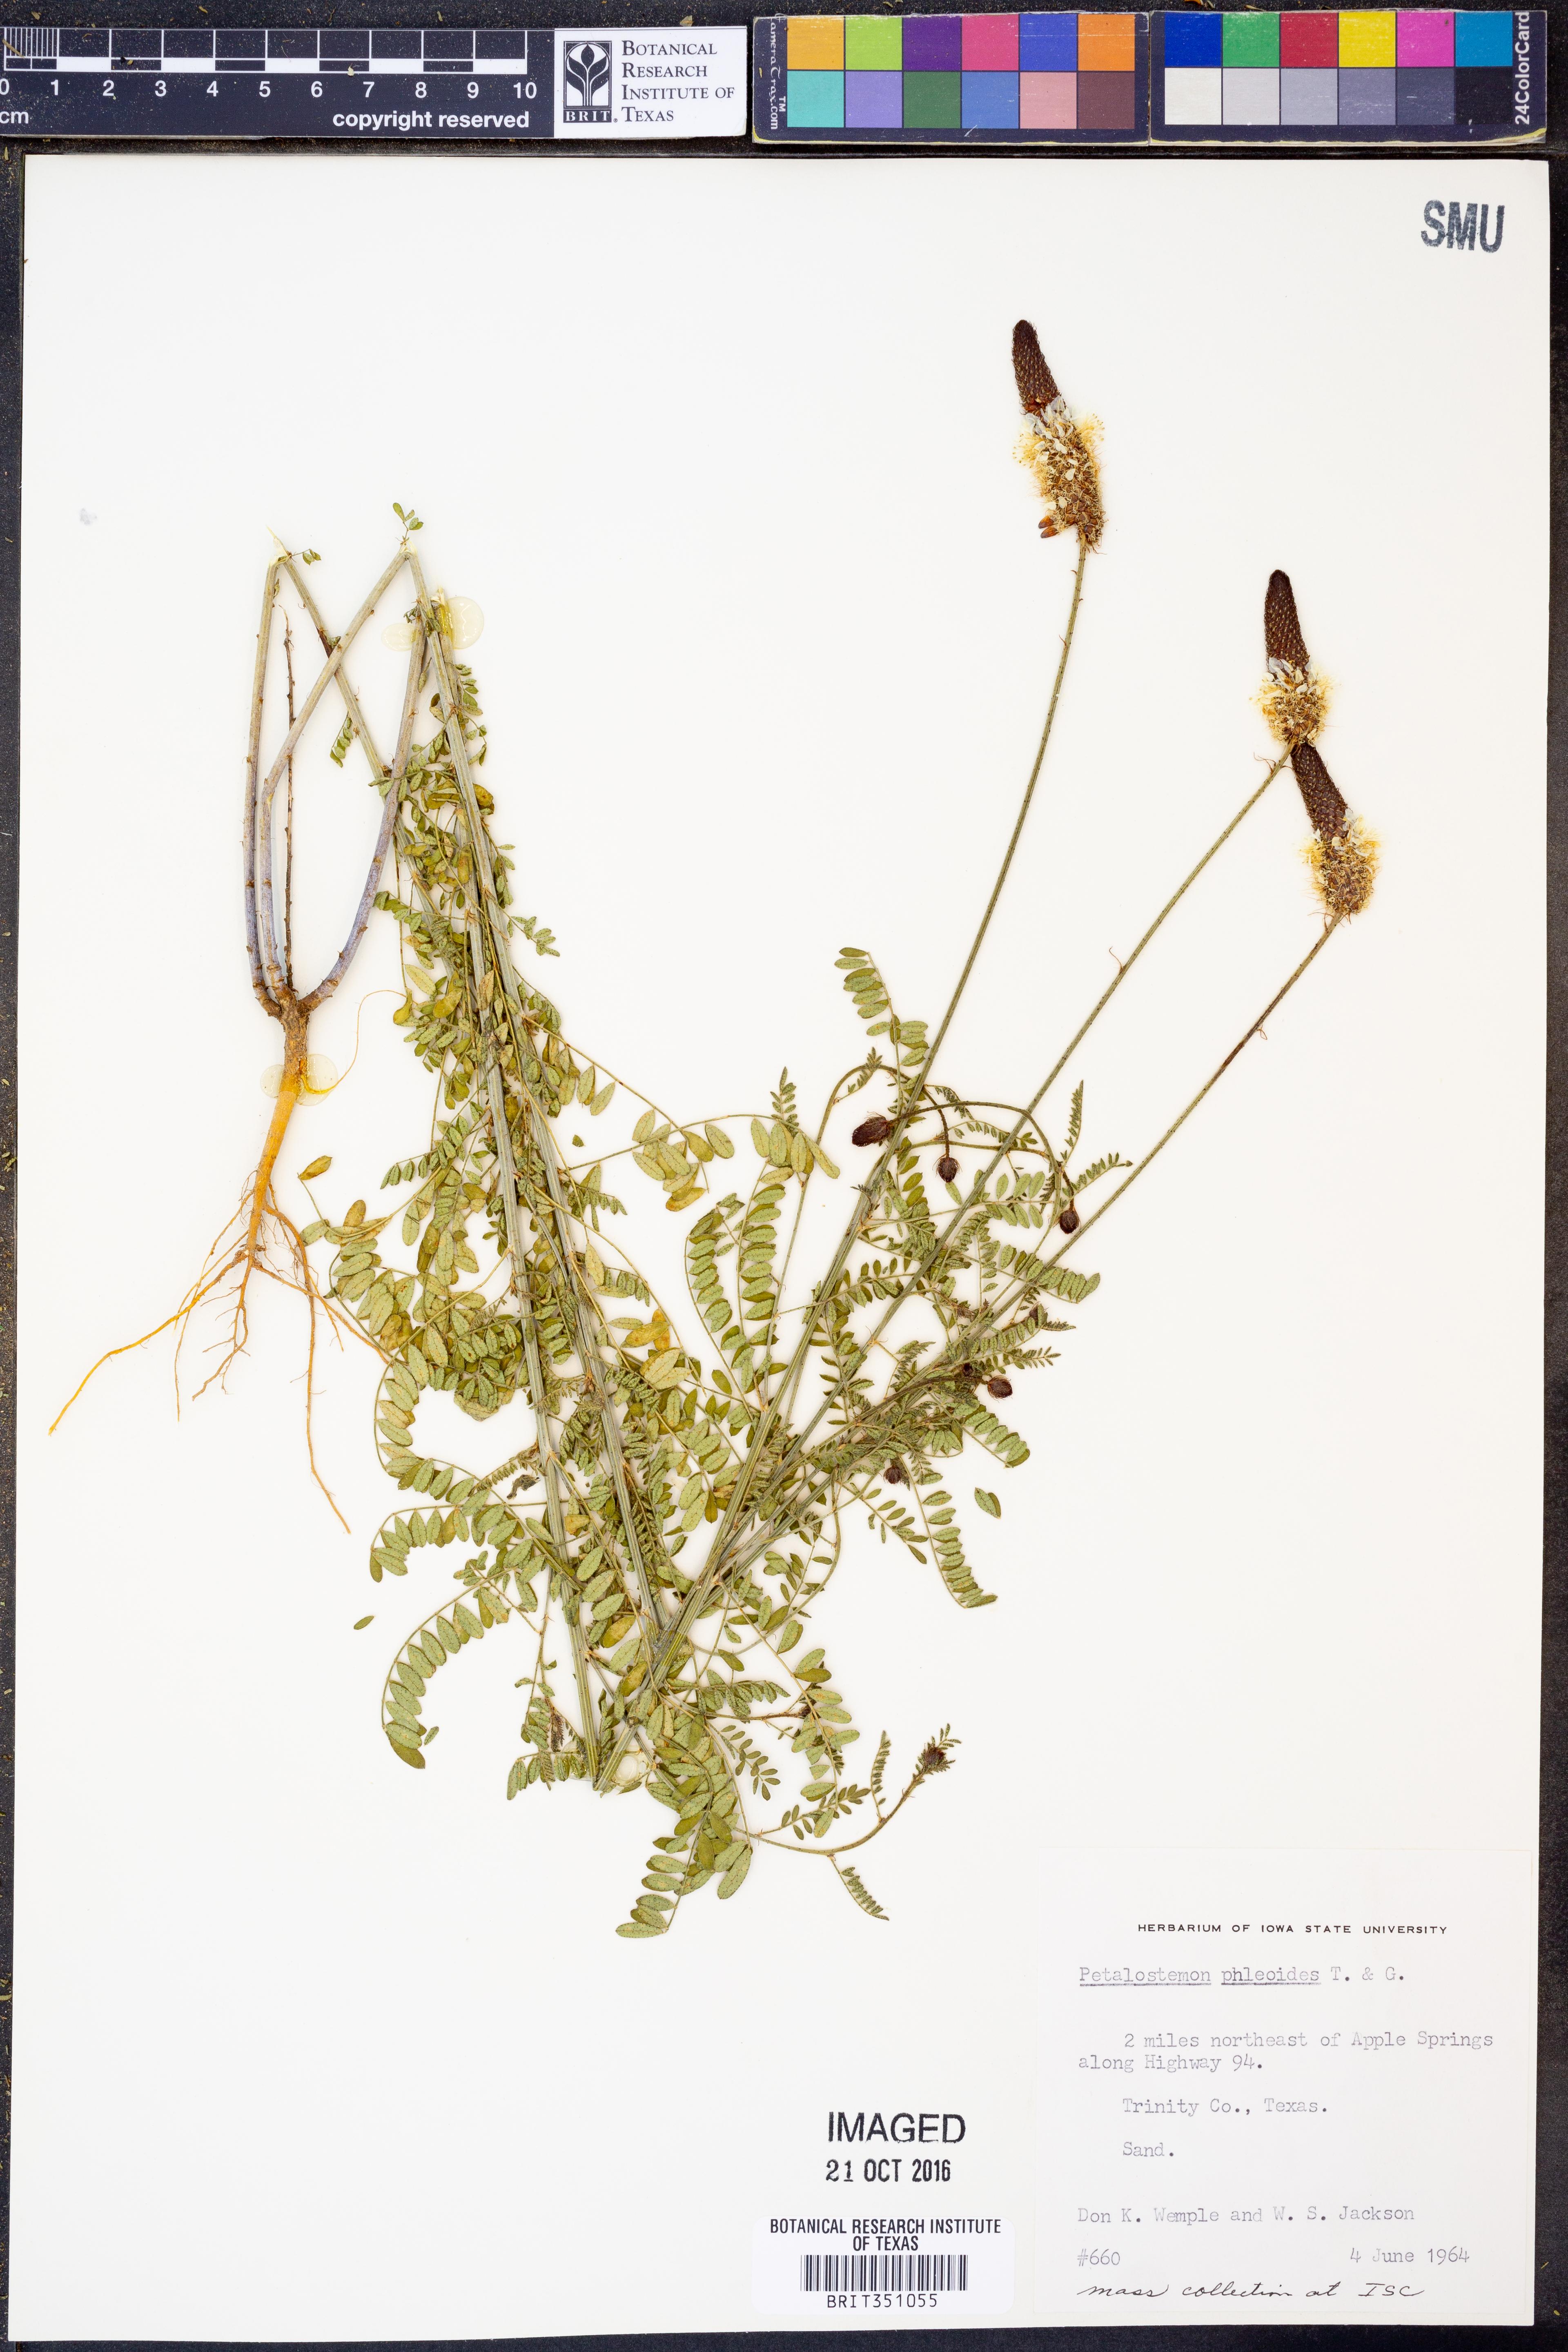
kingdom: Plantae
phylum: Tracheophyta
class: Magnoliopsida
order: Fabales
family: Fabaceae
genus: Dalea
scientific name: Dalea phleoides
